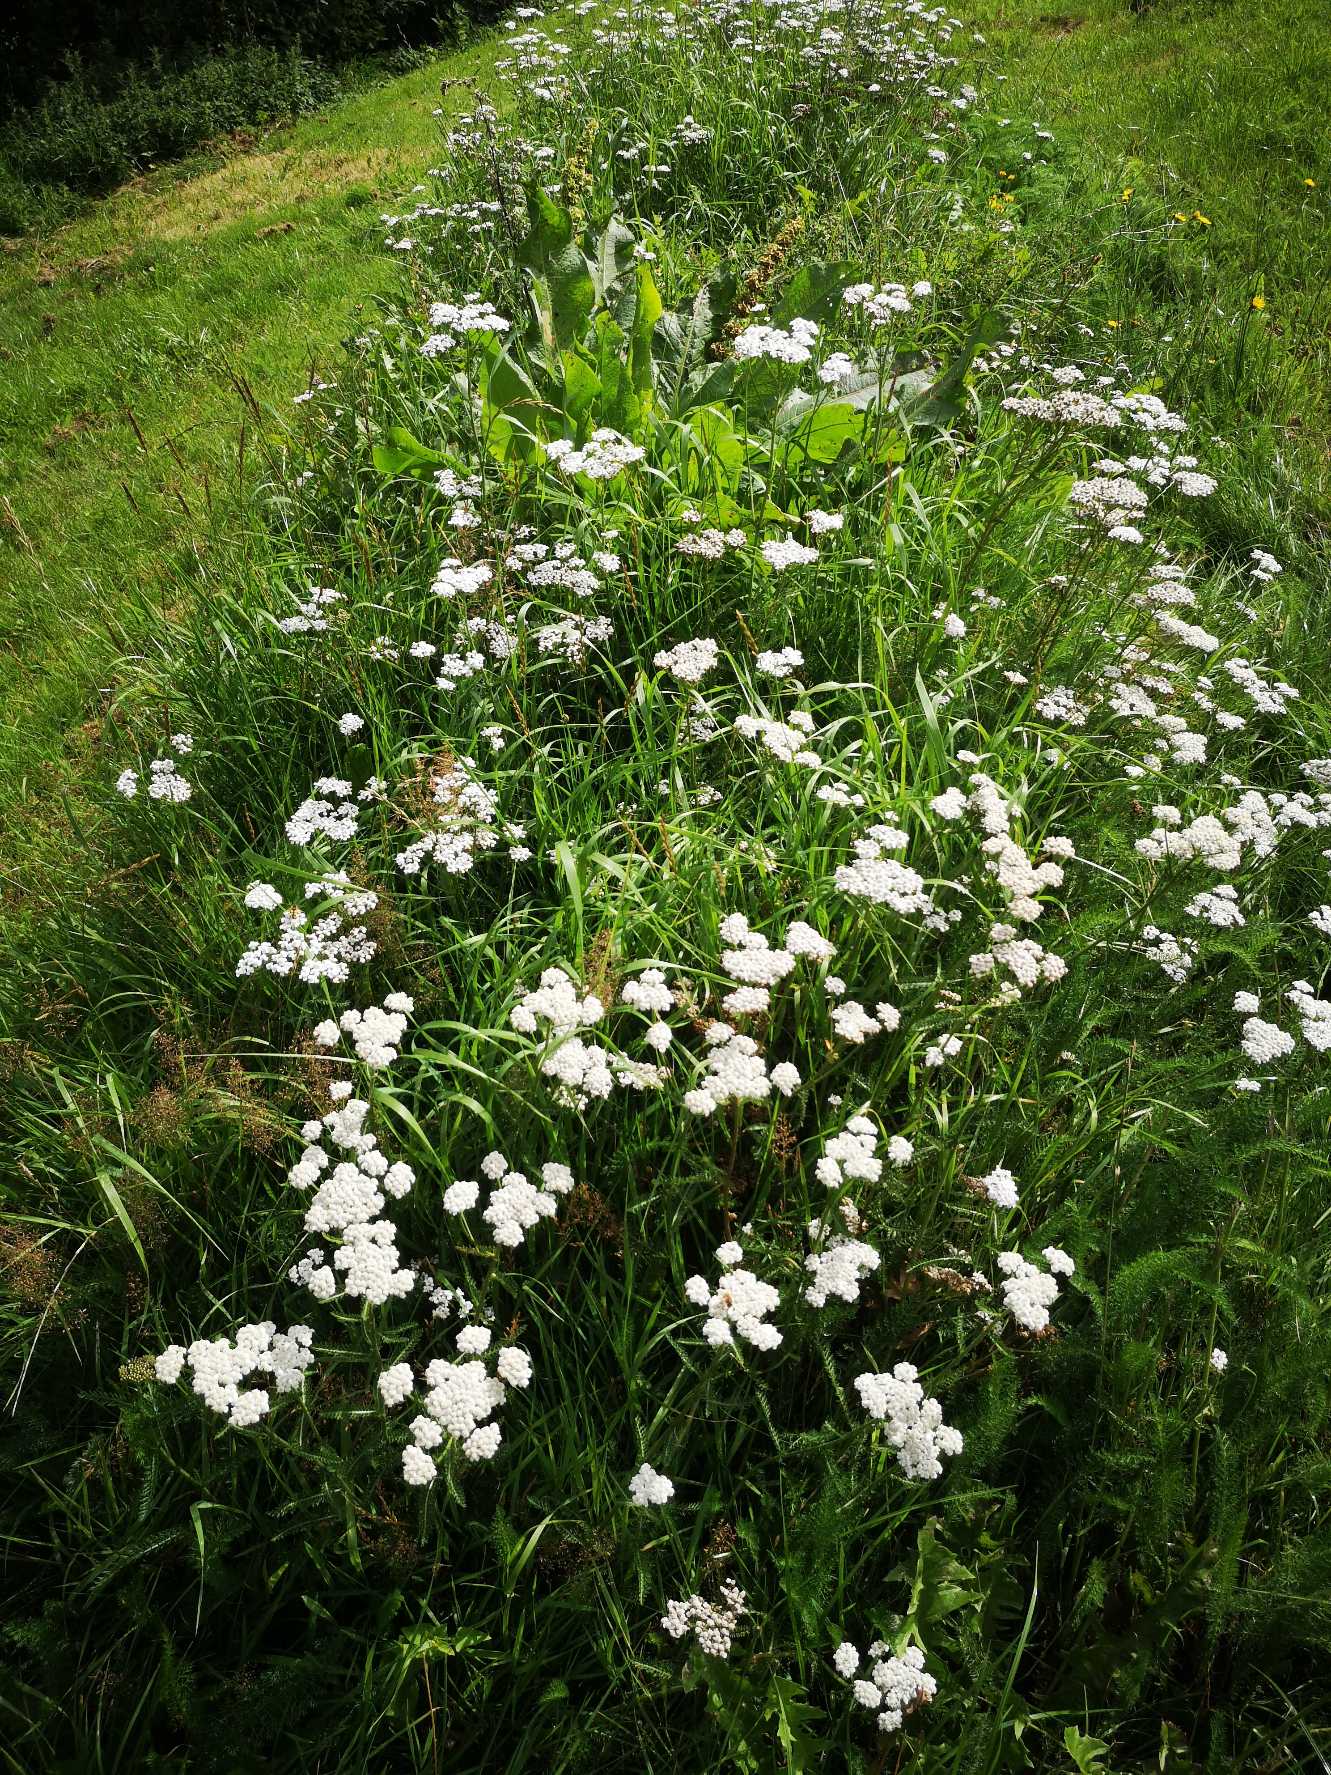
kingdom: Plantae
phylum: Tracheophyta
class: Magnoliopsida
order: Asterales
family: Asteraceae
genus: Achillea
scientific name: Achillea millefolium
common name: Almindelig røllike
